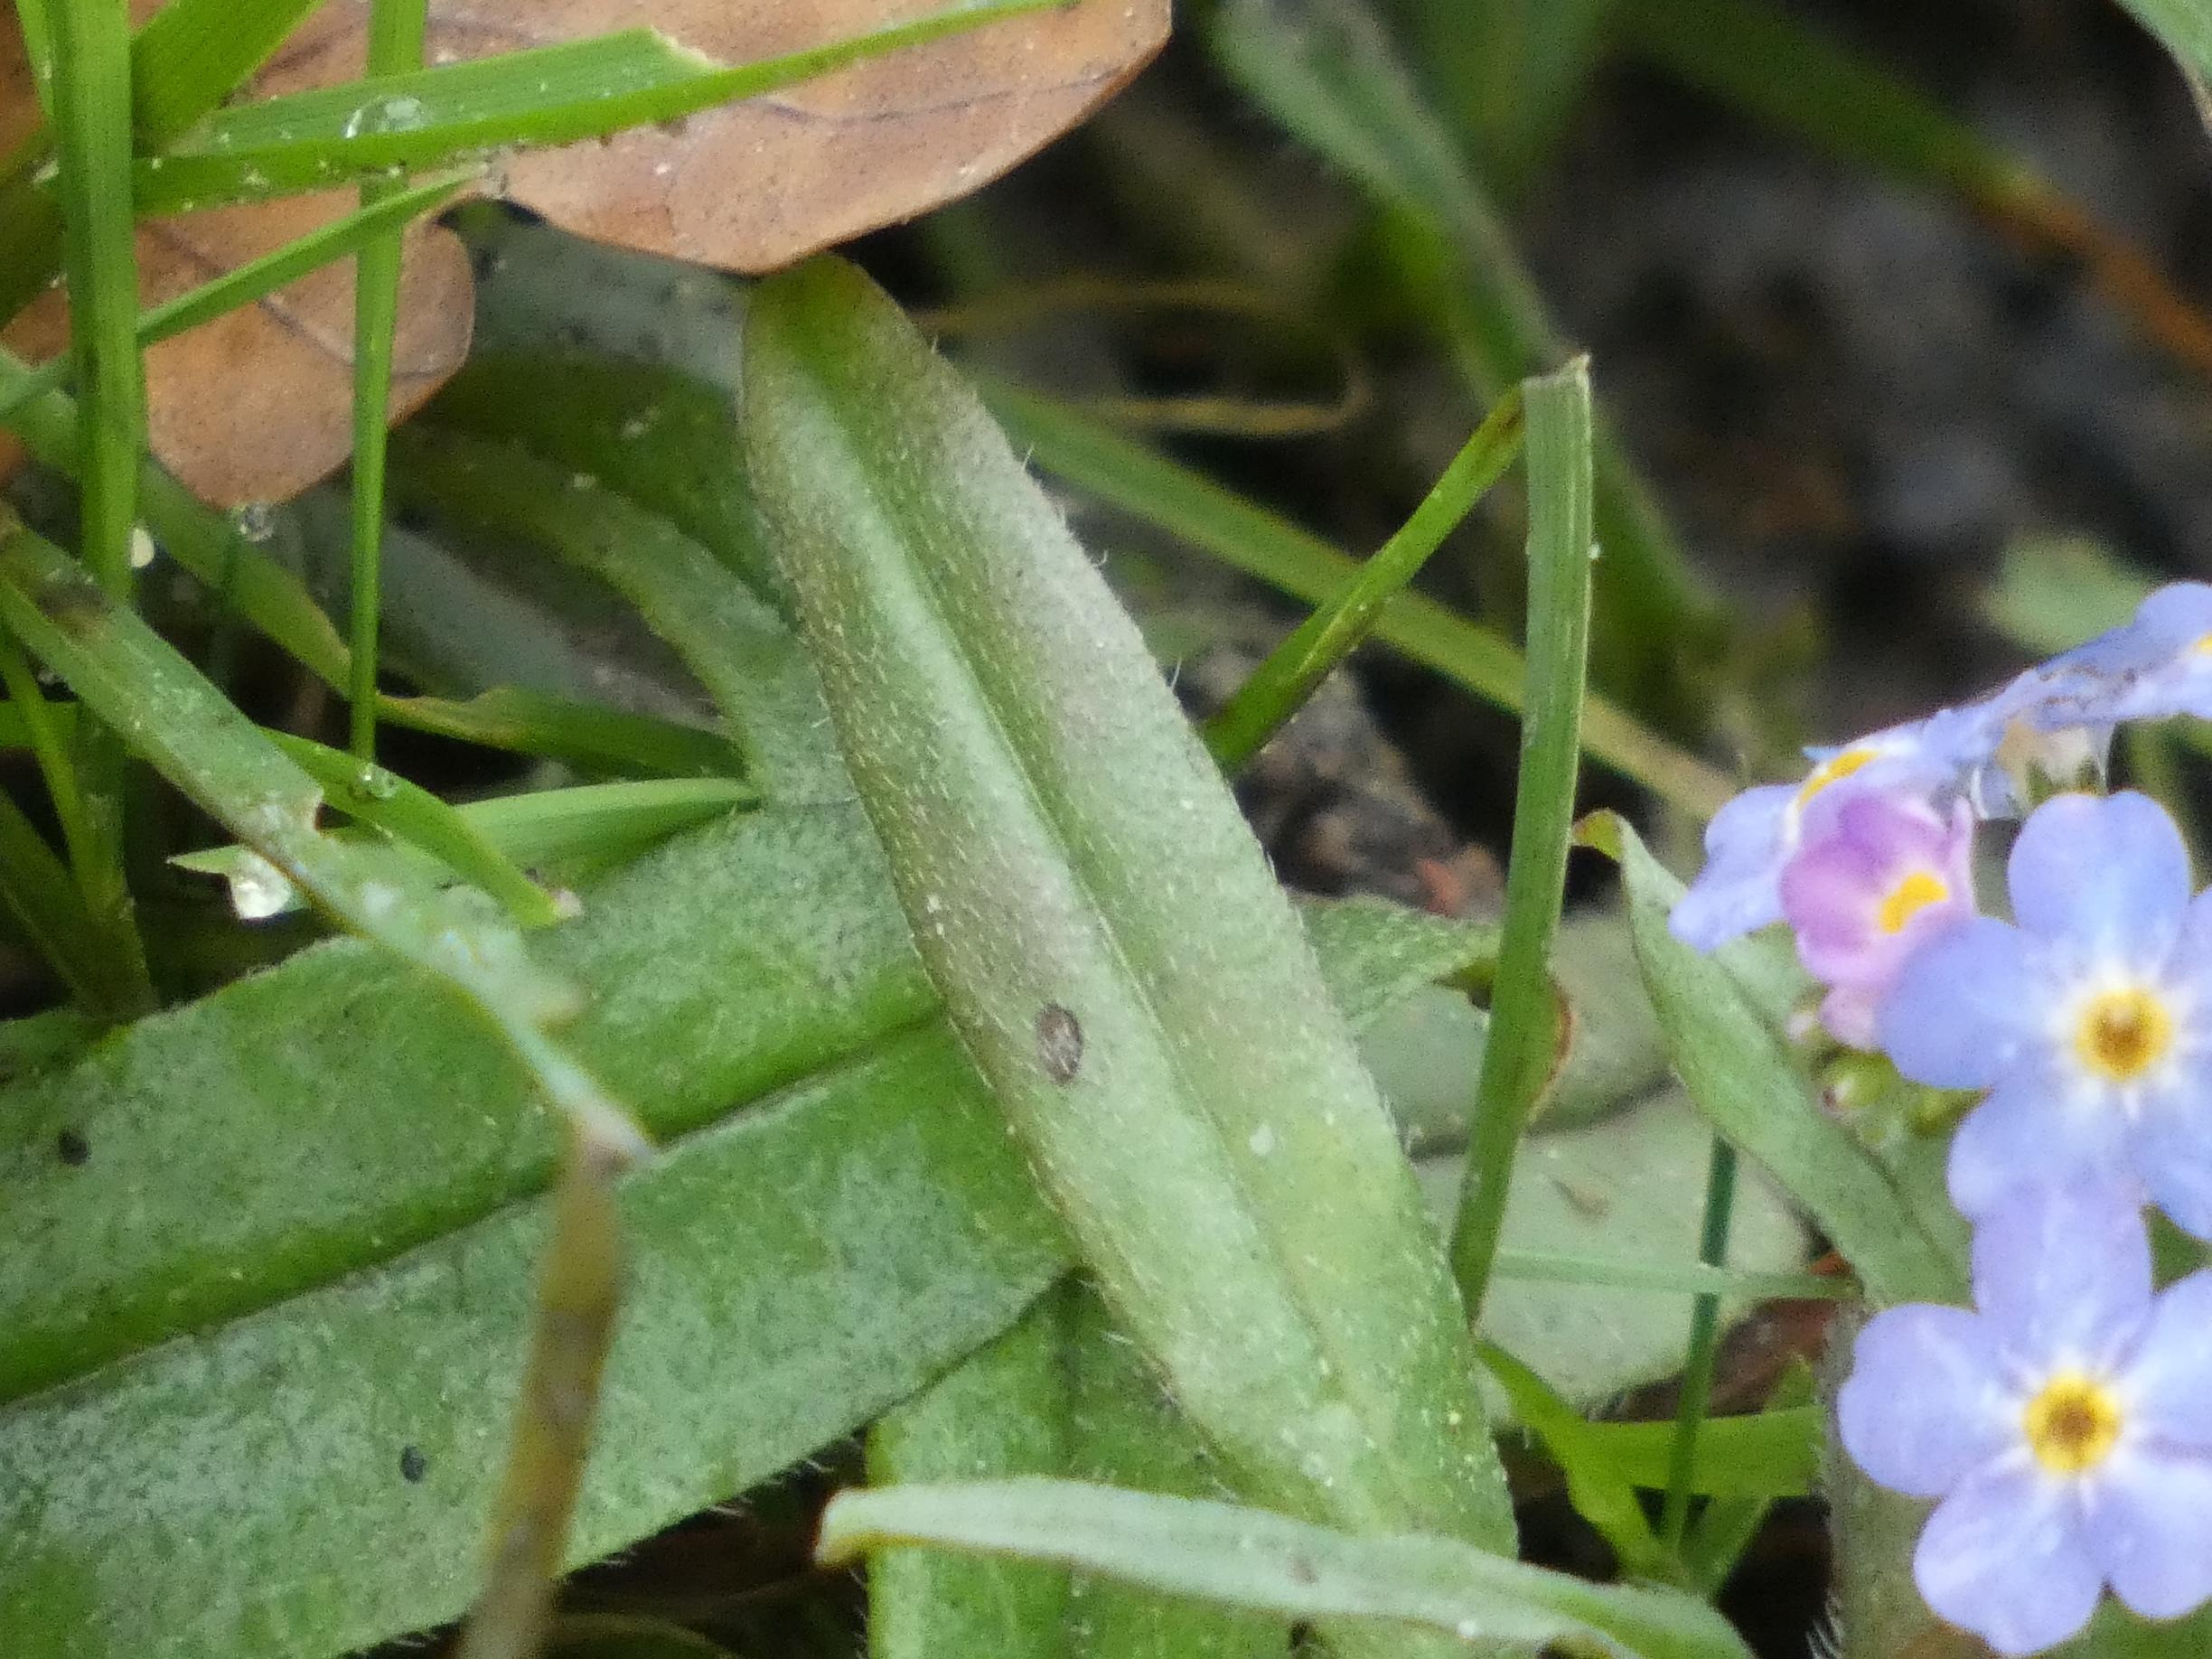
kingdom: Plantae
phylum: Tracheophyta
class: Magnoliopsida
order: Boraginales
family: Boraginaceae
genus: Myosotis
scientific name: Myosotis scorpioides
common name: Eng-forglemmigej
